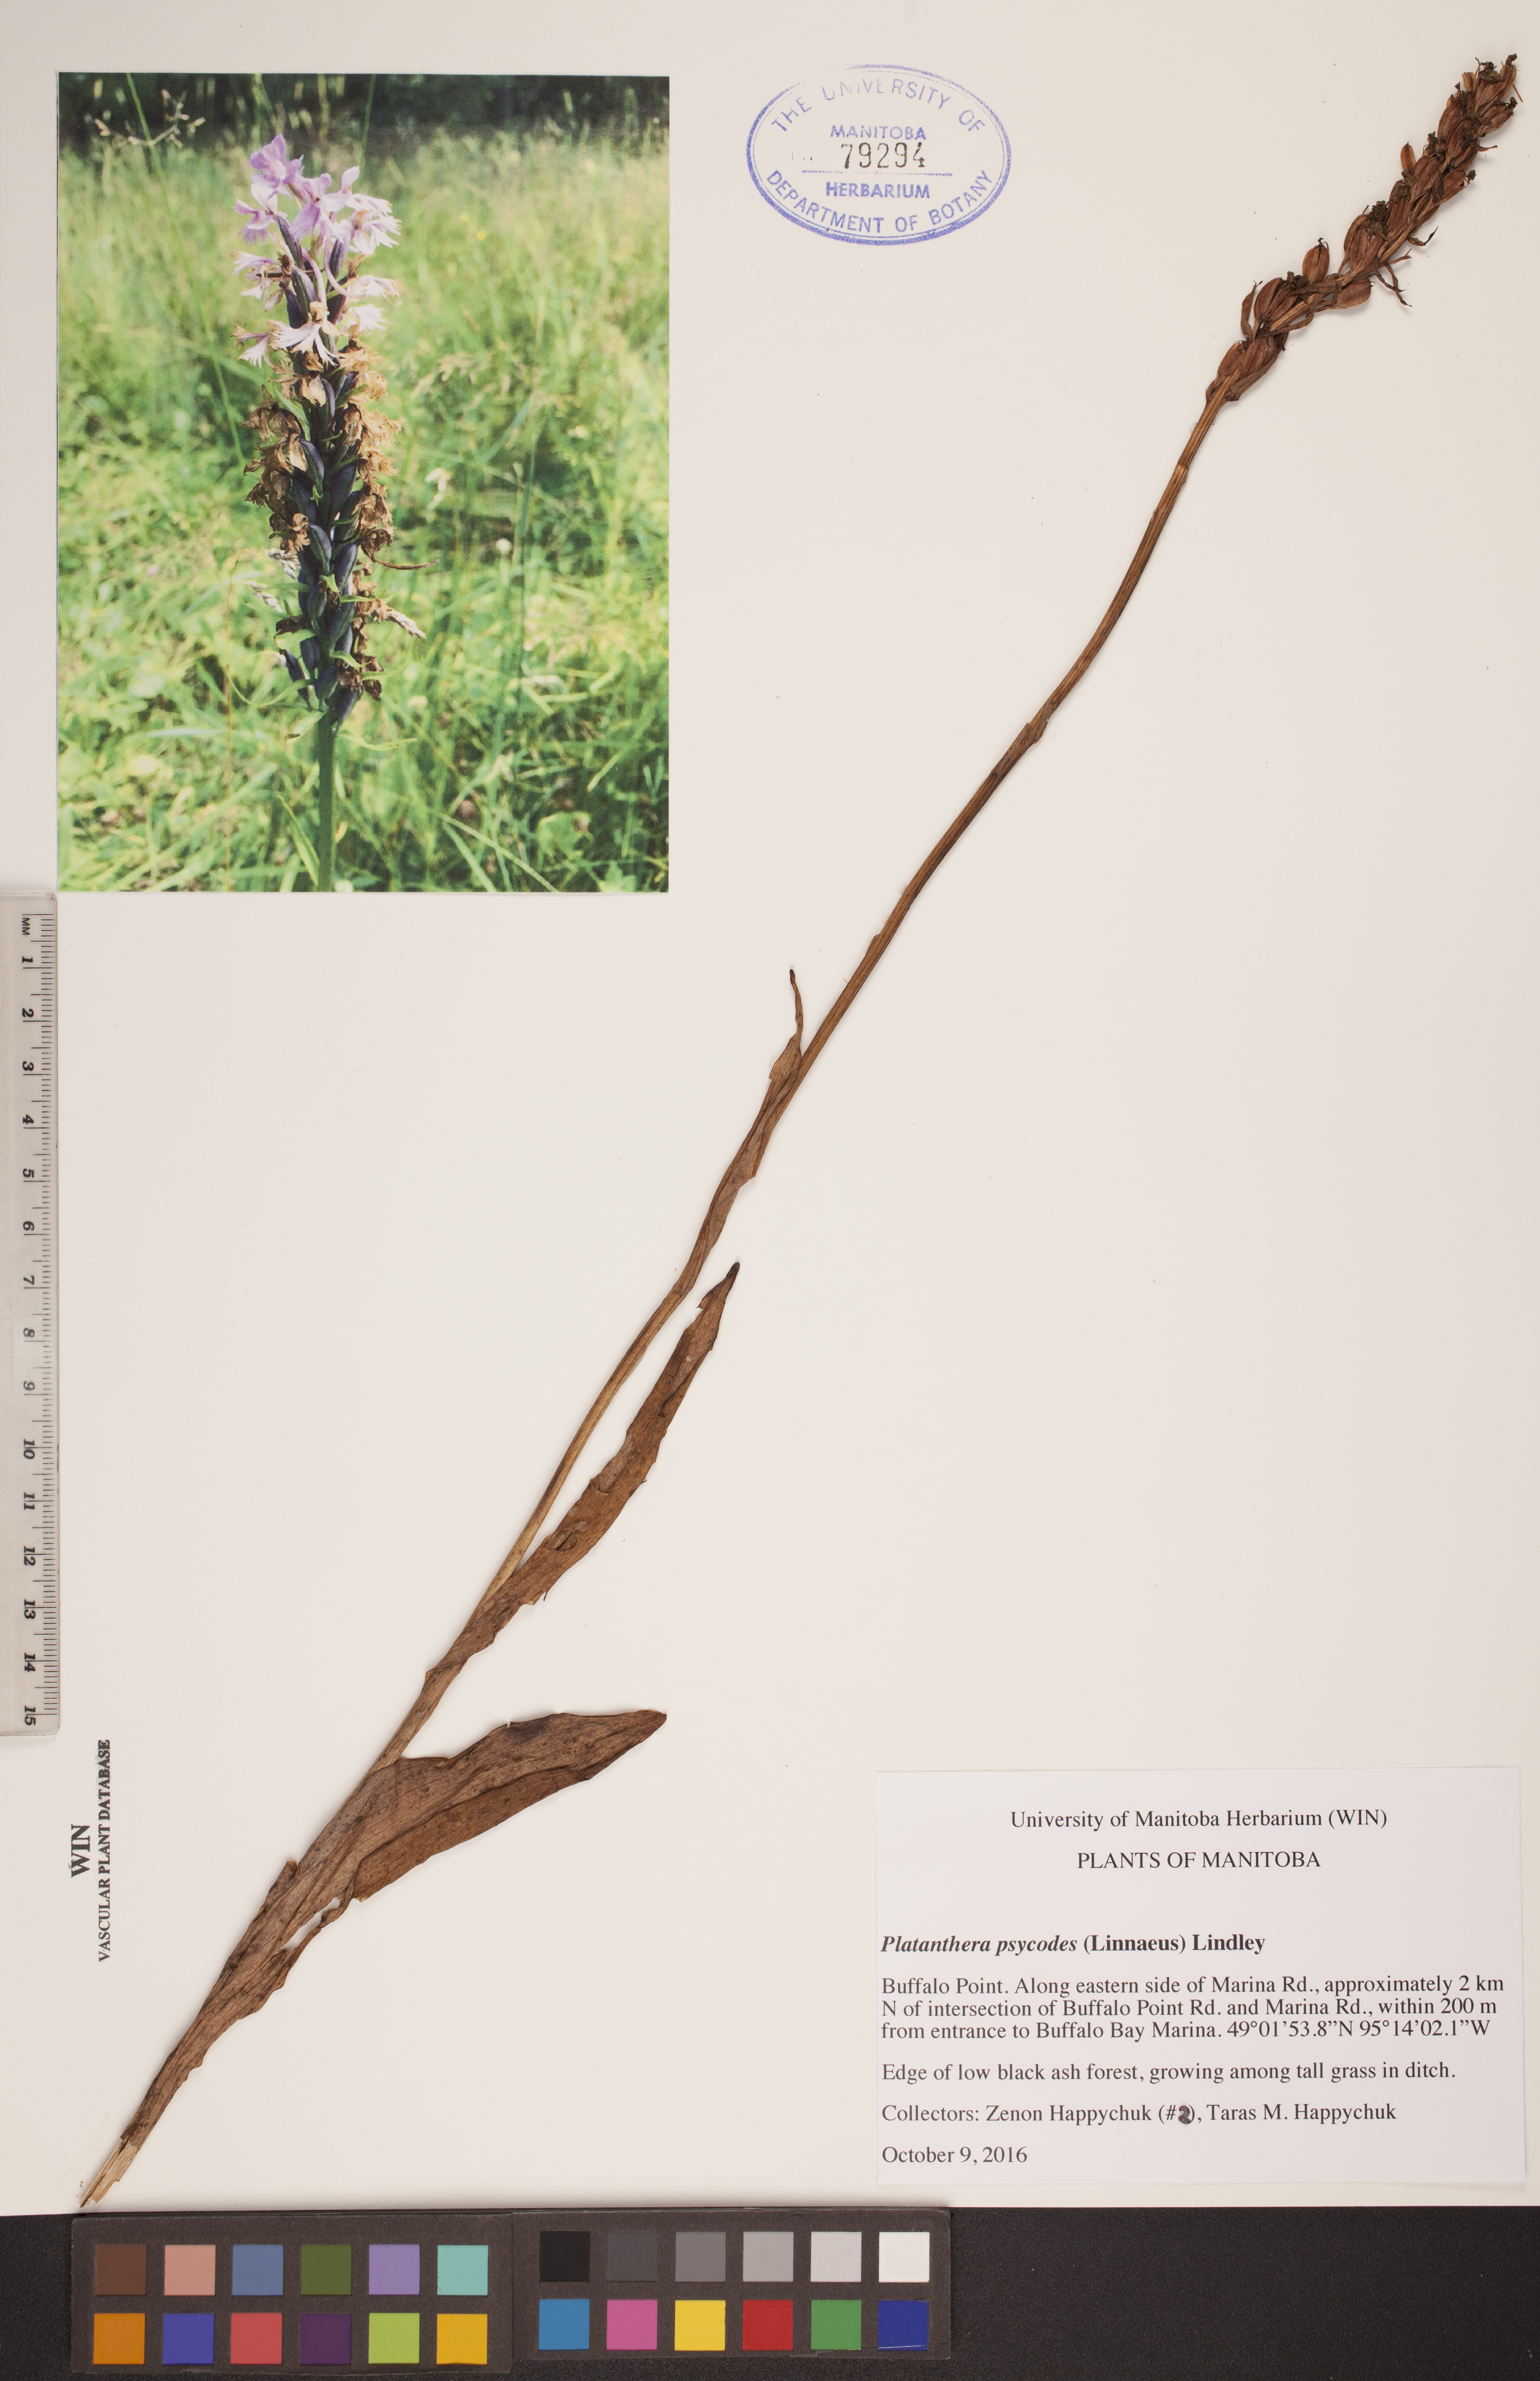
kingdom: Plantae
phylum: Tracheophyta
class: Liliopsida
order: Asparagales
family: Orchidaceae
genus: Platanthera
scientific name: Platanthera psycodes
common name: Lesser purple fringed orchid
